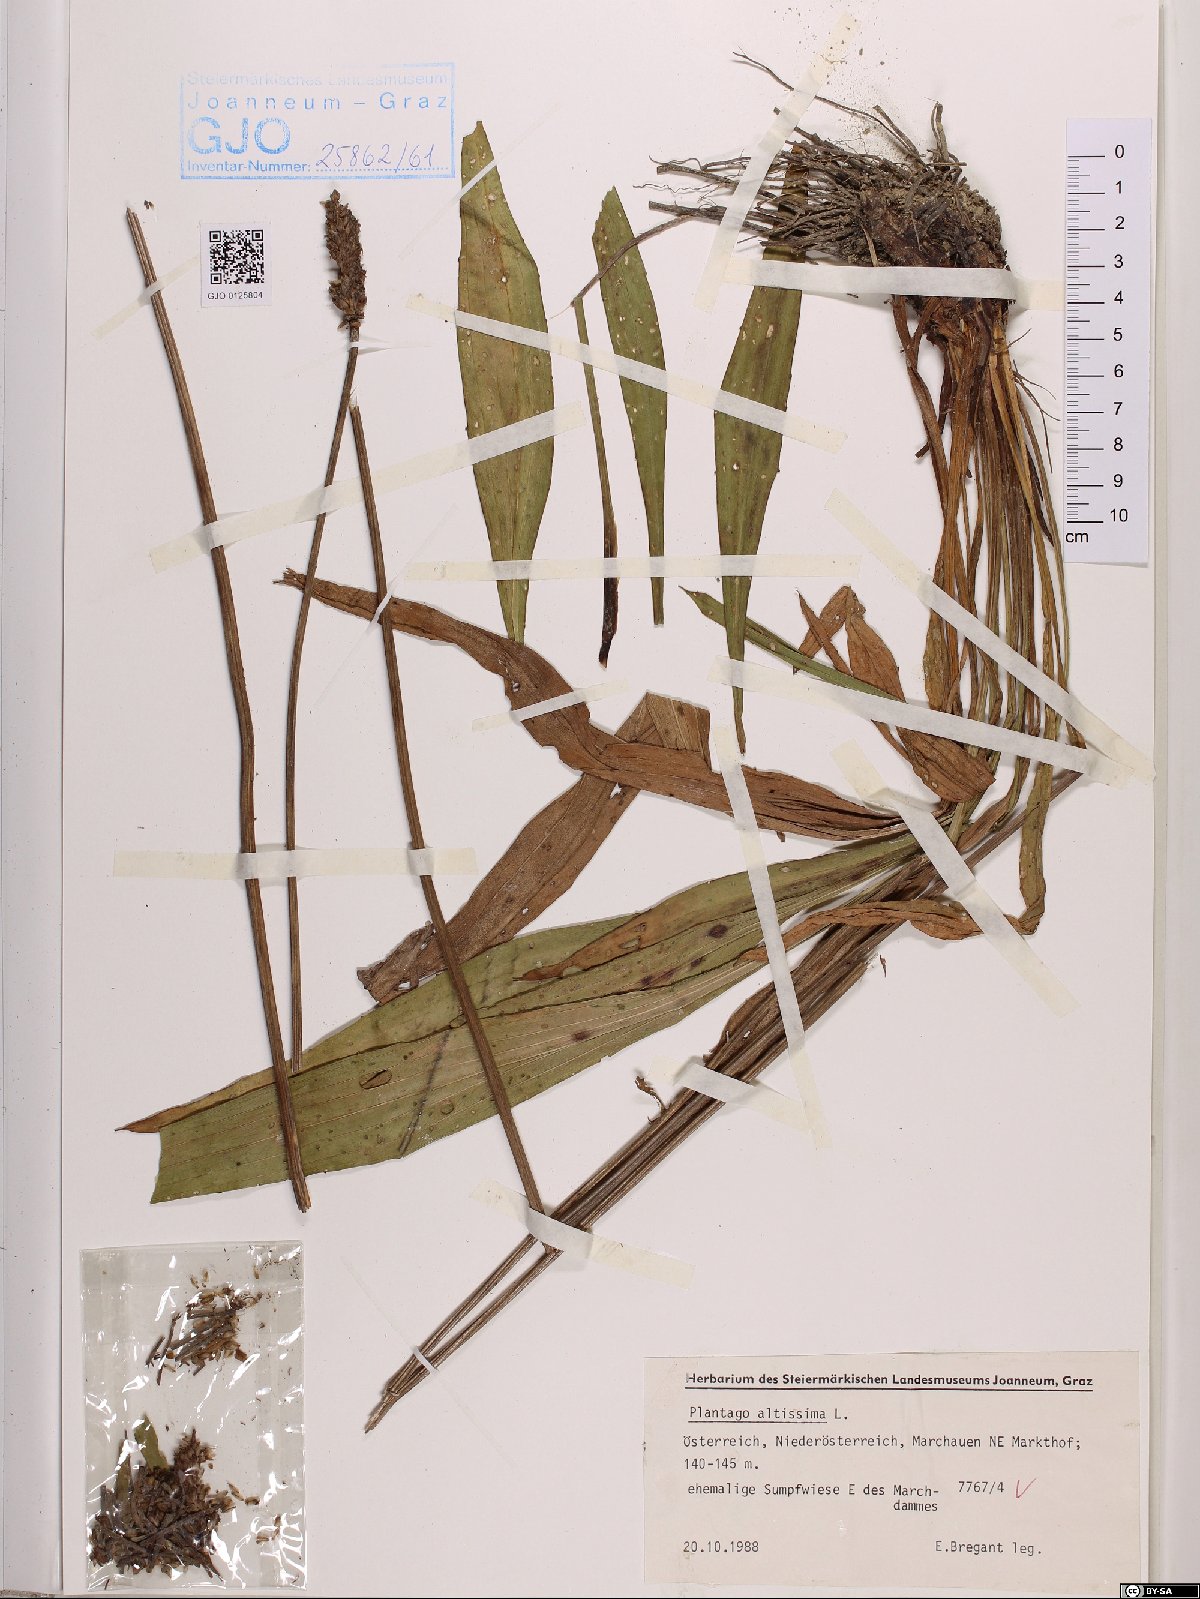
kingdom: Plantae
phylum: Tracheophyta
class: Magnoliopsida
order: Lamiales
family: Plantaginaceae
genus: Plantago
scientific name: Plantago altissima
